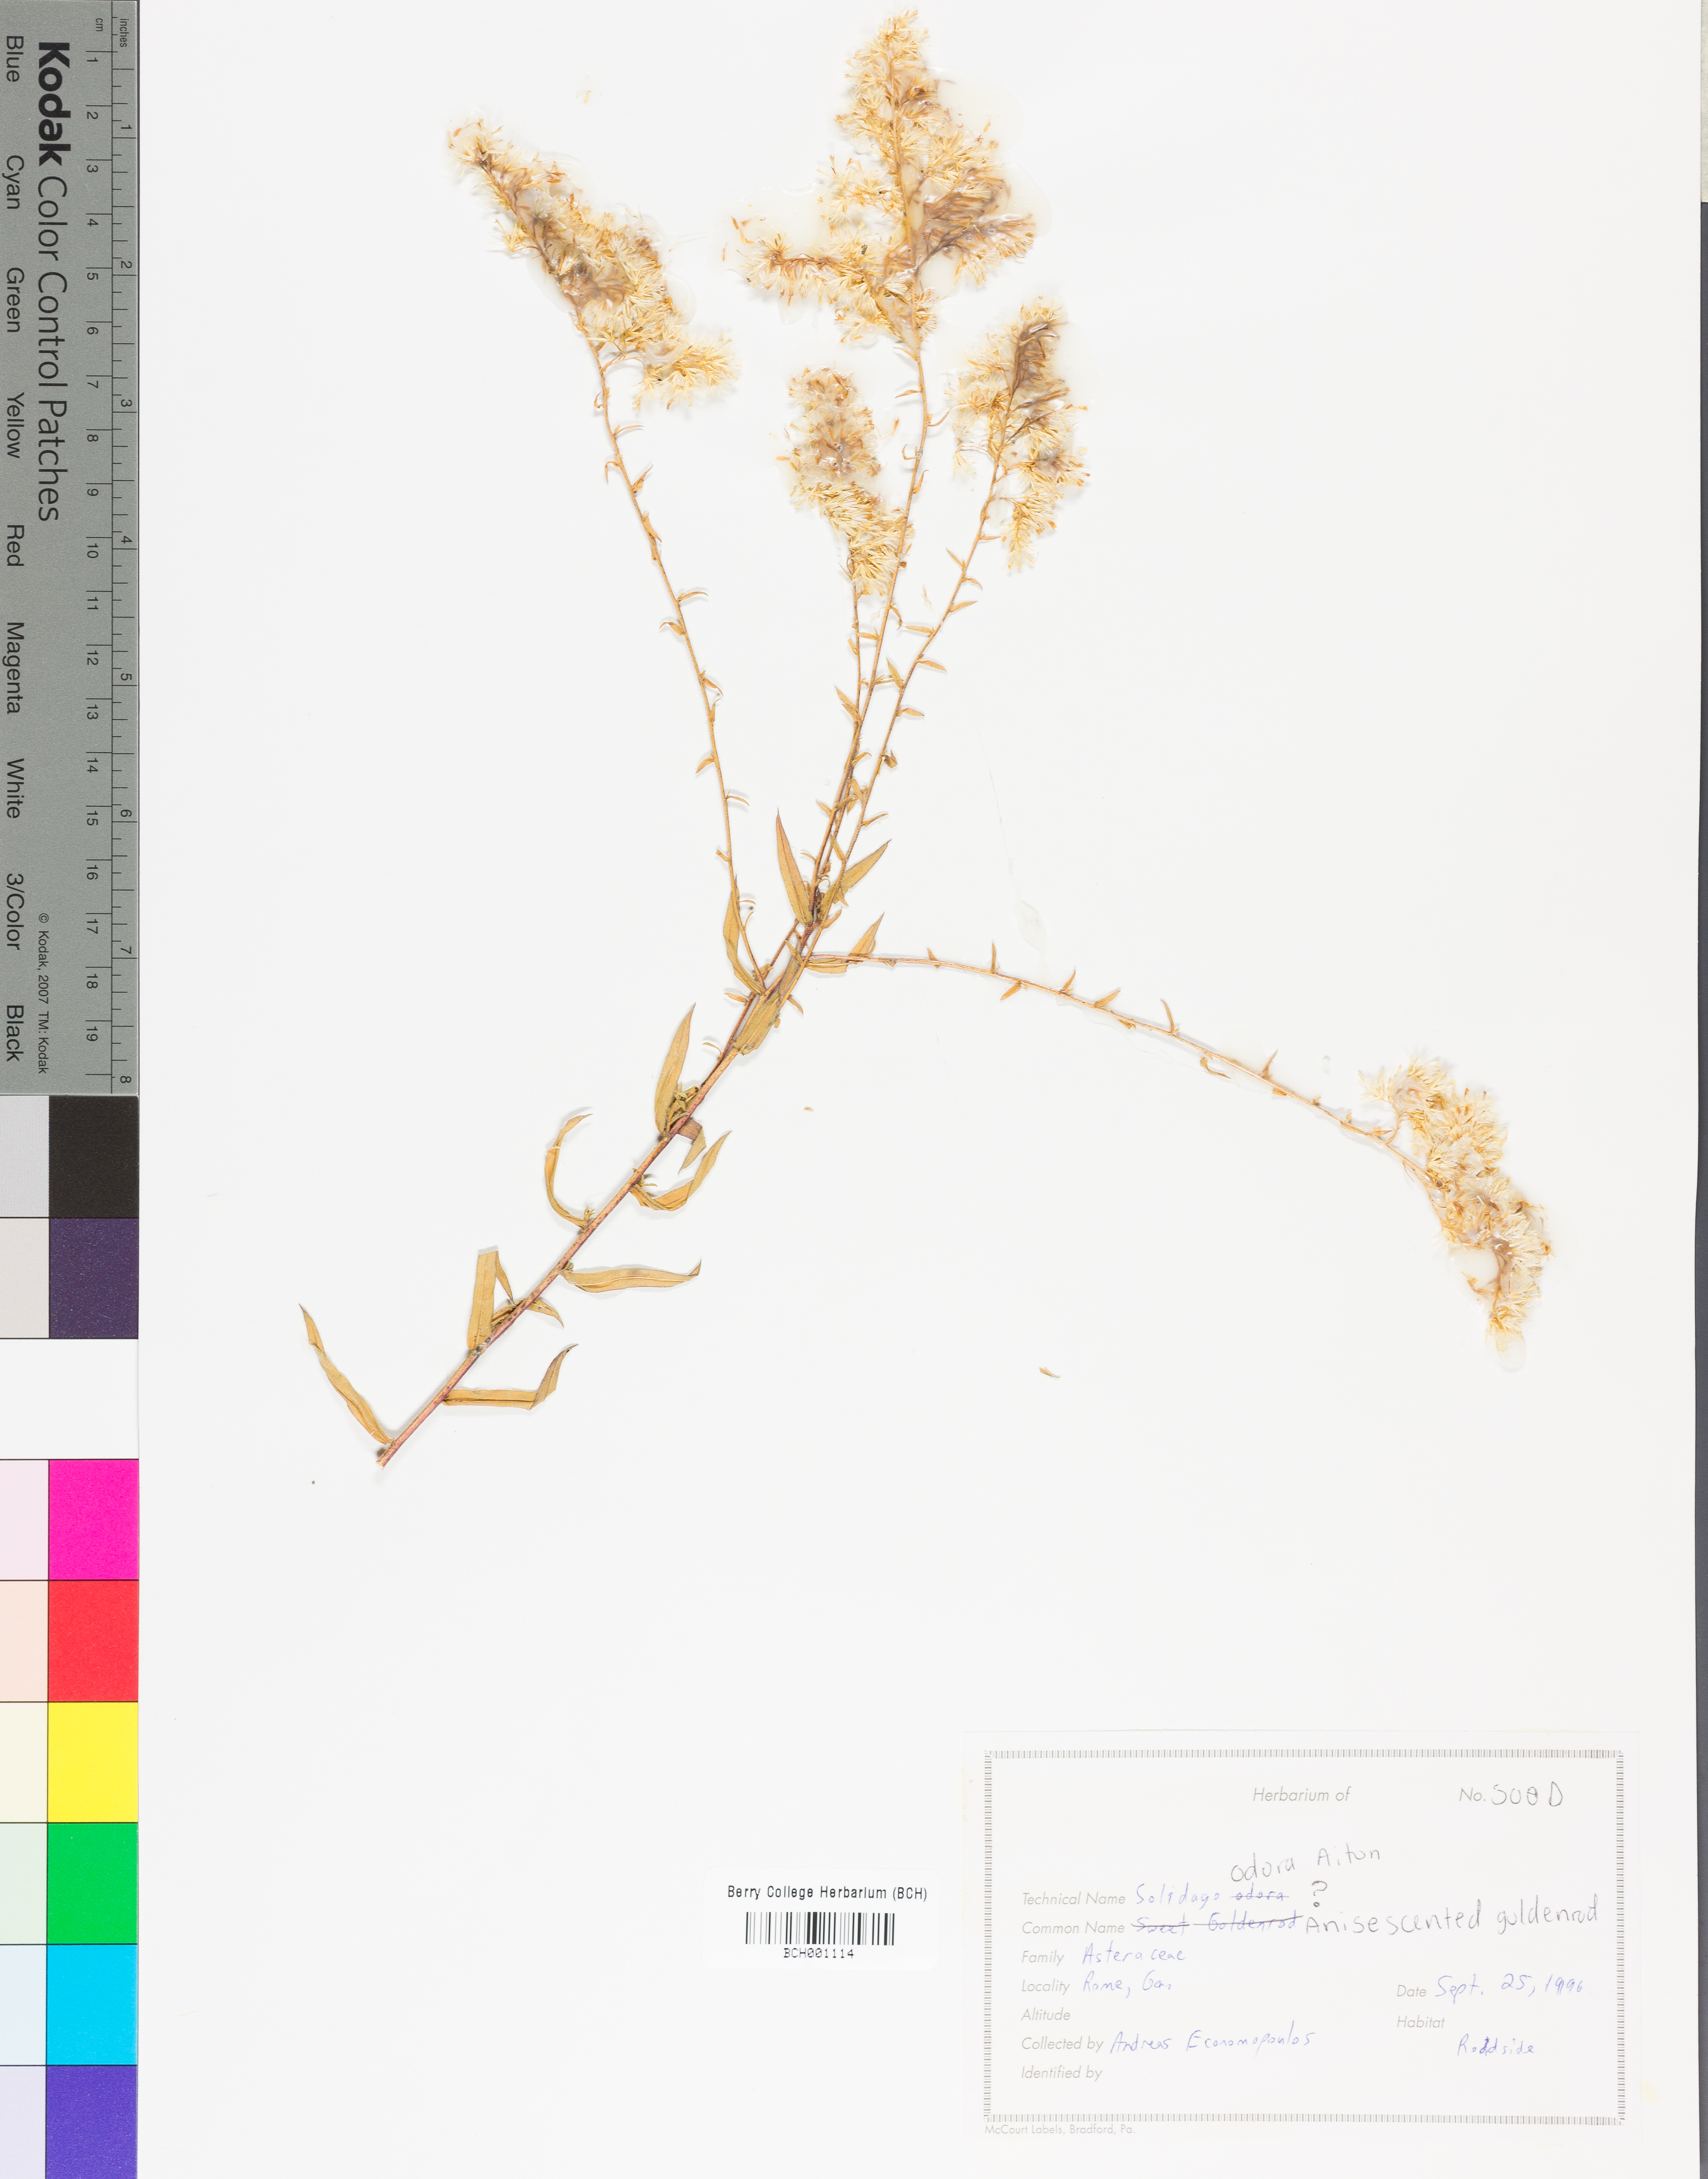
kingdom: Plantae
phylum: Tracheophyta
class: Magnoliopsida
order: Asterales
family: Asteraceae
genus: Solidago
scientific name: Solidago odora
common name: Anise-scented goldenrod
